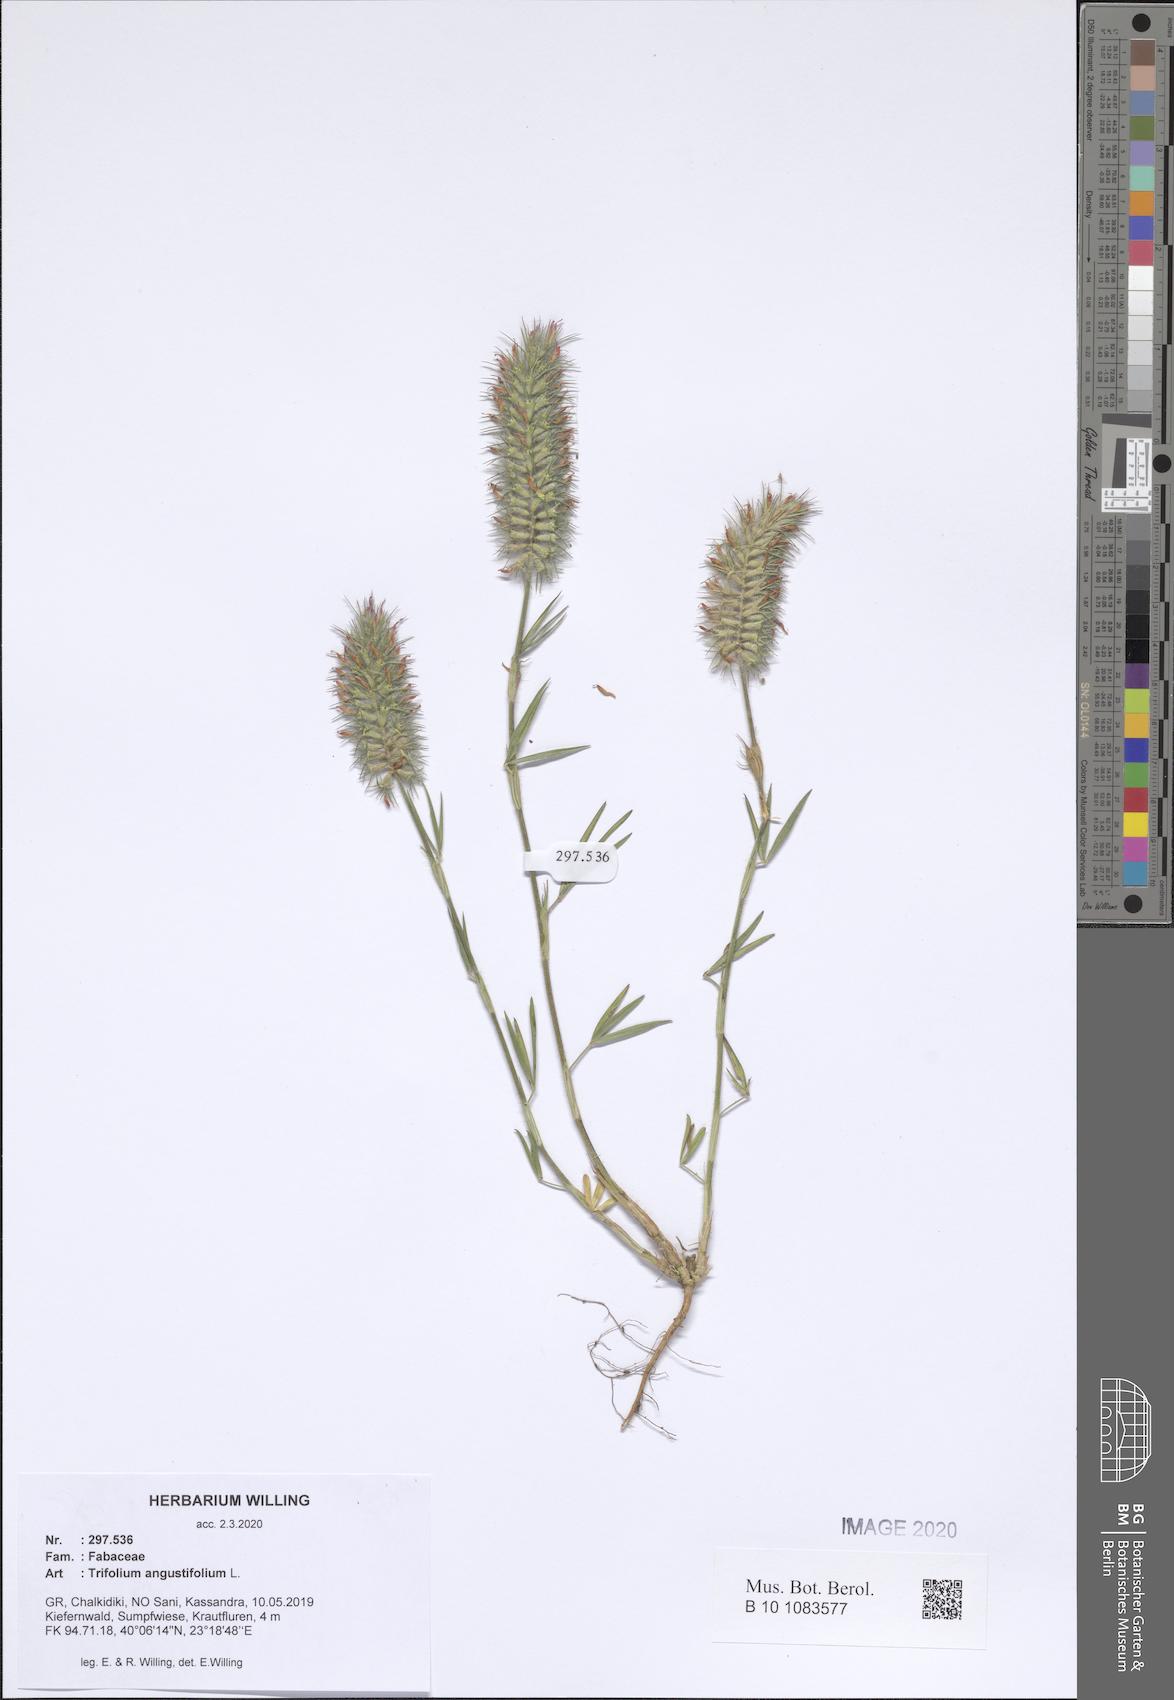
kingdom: Plantae
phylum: Tracheophyta
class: Magnoliopsida
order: Fabales
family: Fabaceae
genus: Trifolium
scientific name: Trifolium angustifolium
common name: Narrow clover
